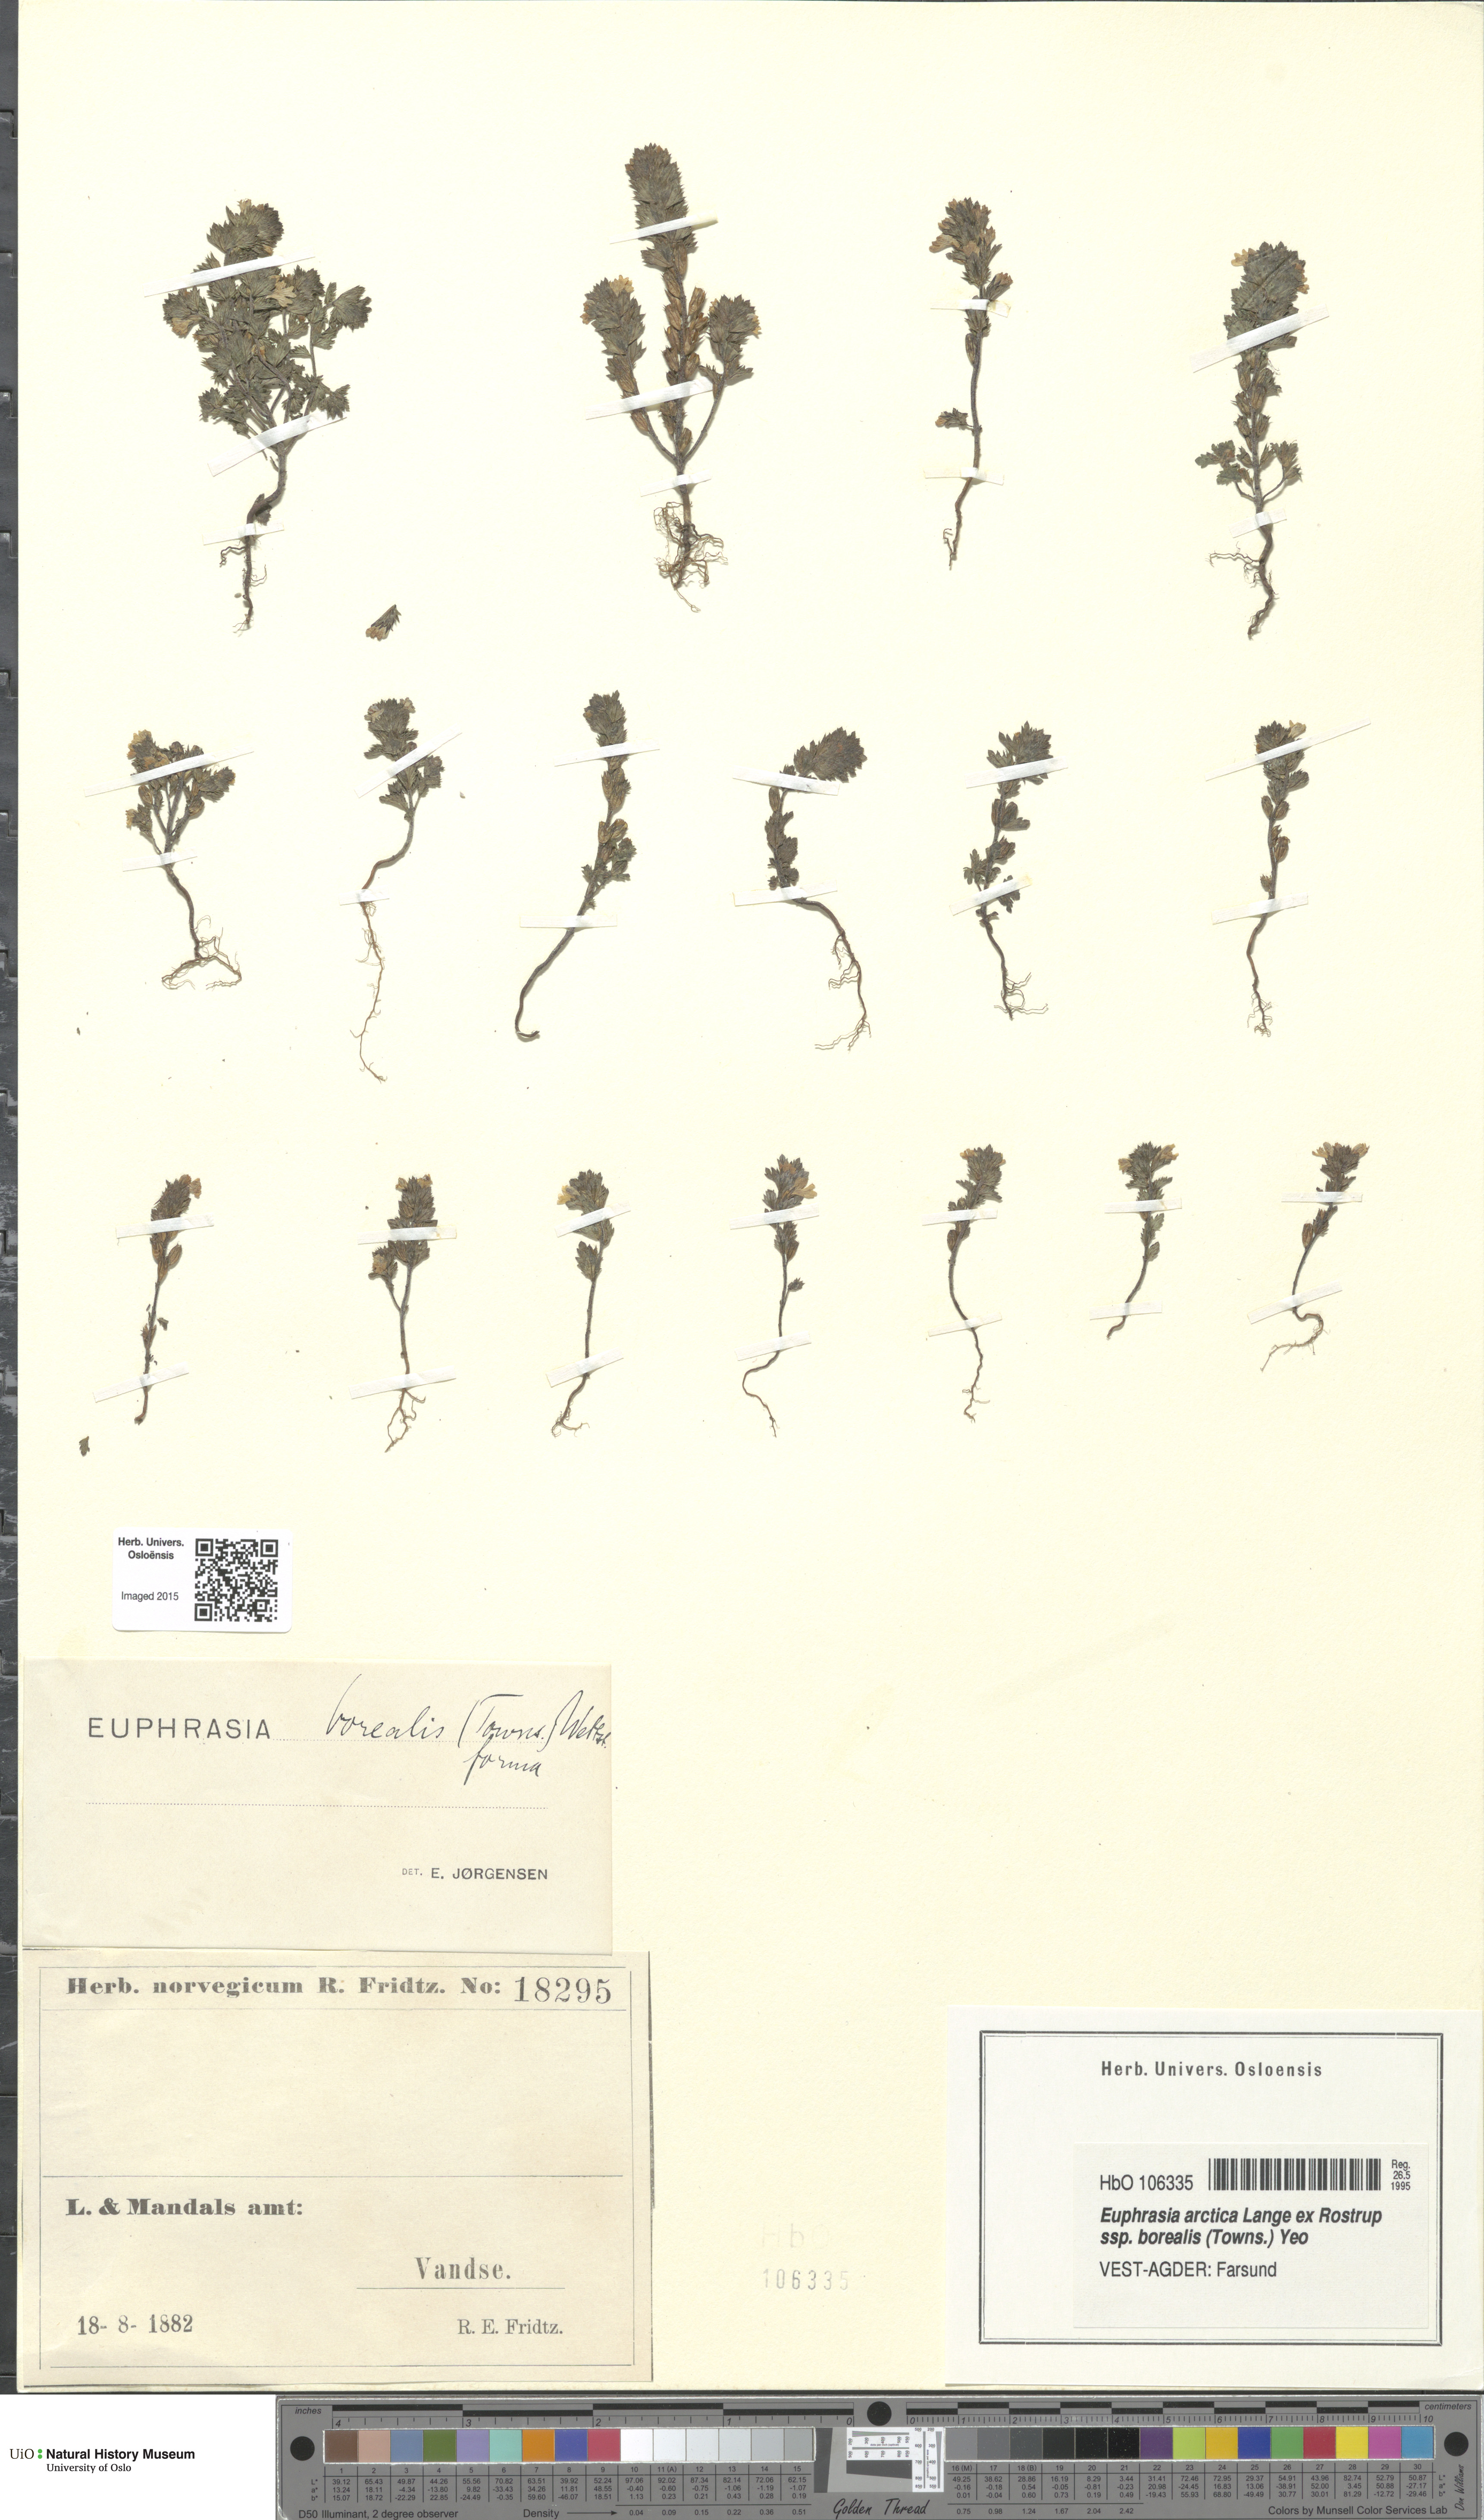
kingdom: Plantae
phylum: Tracheophyta
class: Magnoliopsida
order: Lamiales
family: Orobanchaceae
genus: Euphrasia
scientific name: Euphrasia arctica
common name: An eyebright
